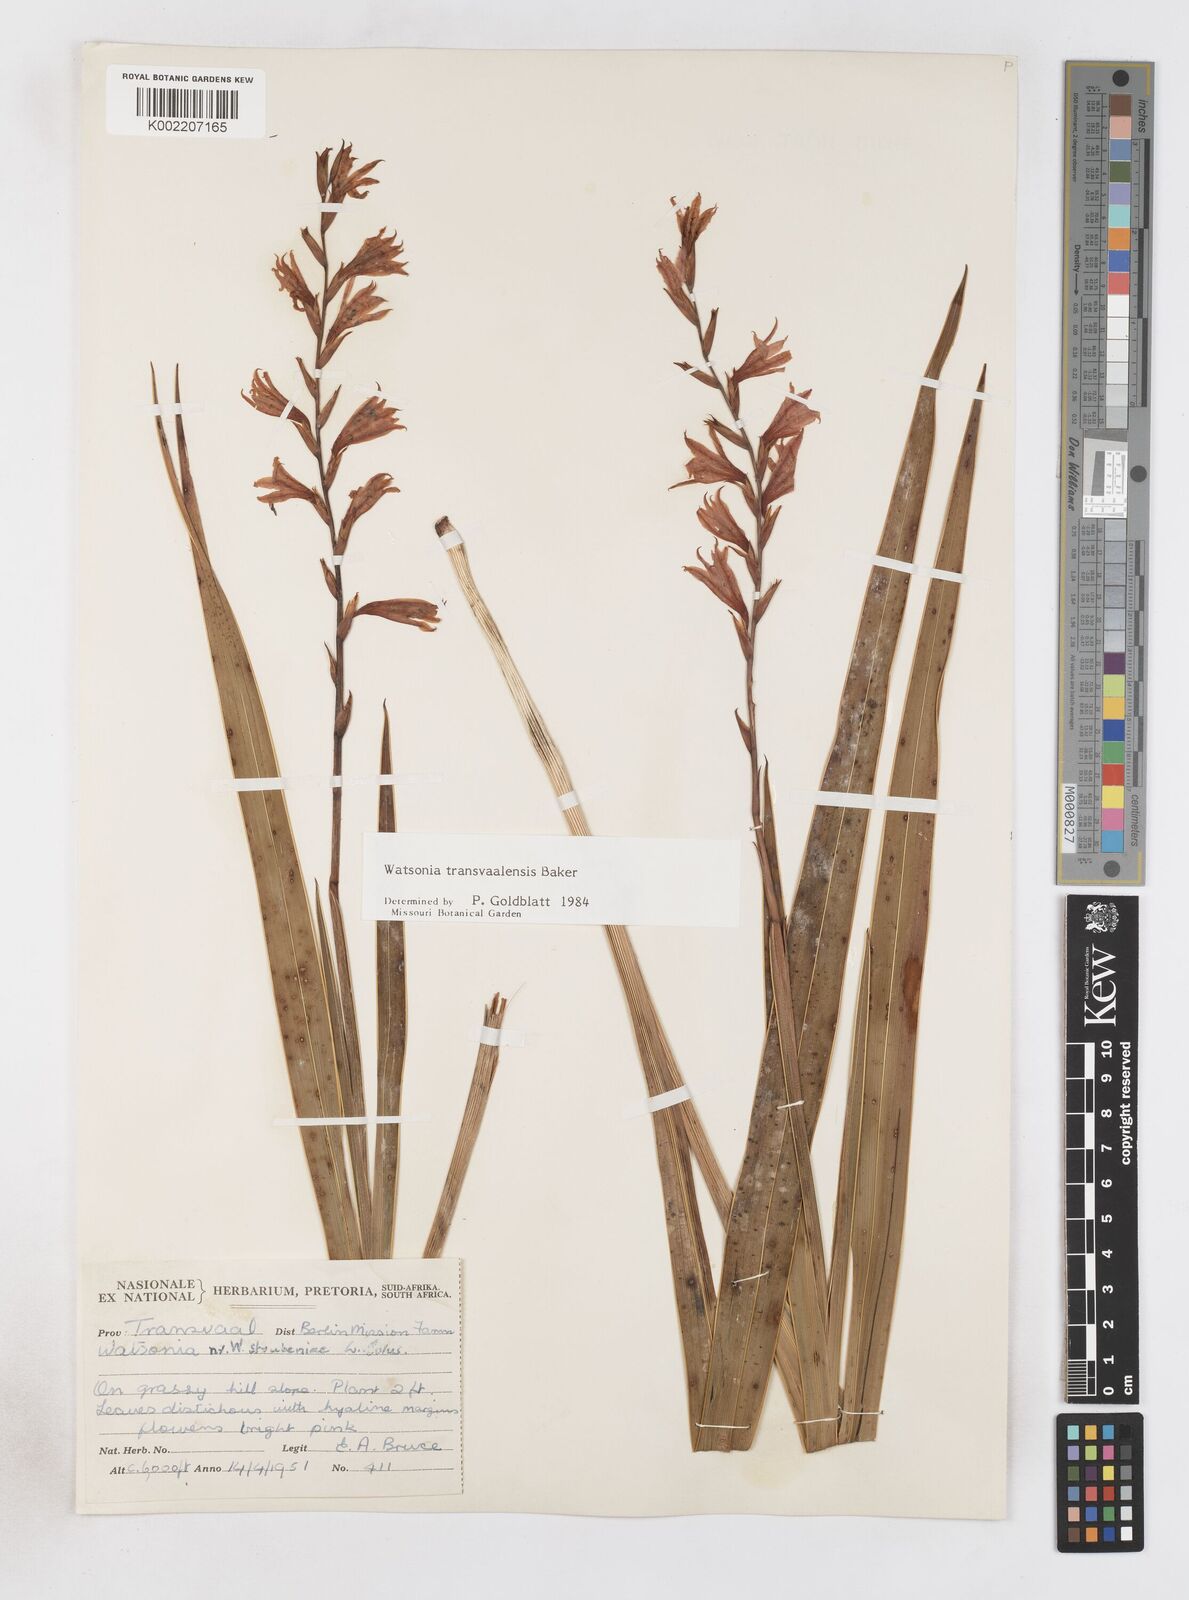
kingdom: Plantae
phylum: Tracheophyta
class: Liliopsida
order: Asparagales
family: Iridaceae
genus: Watsonia
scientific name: Watsonia transvaalensis
